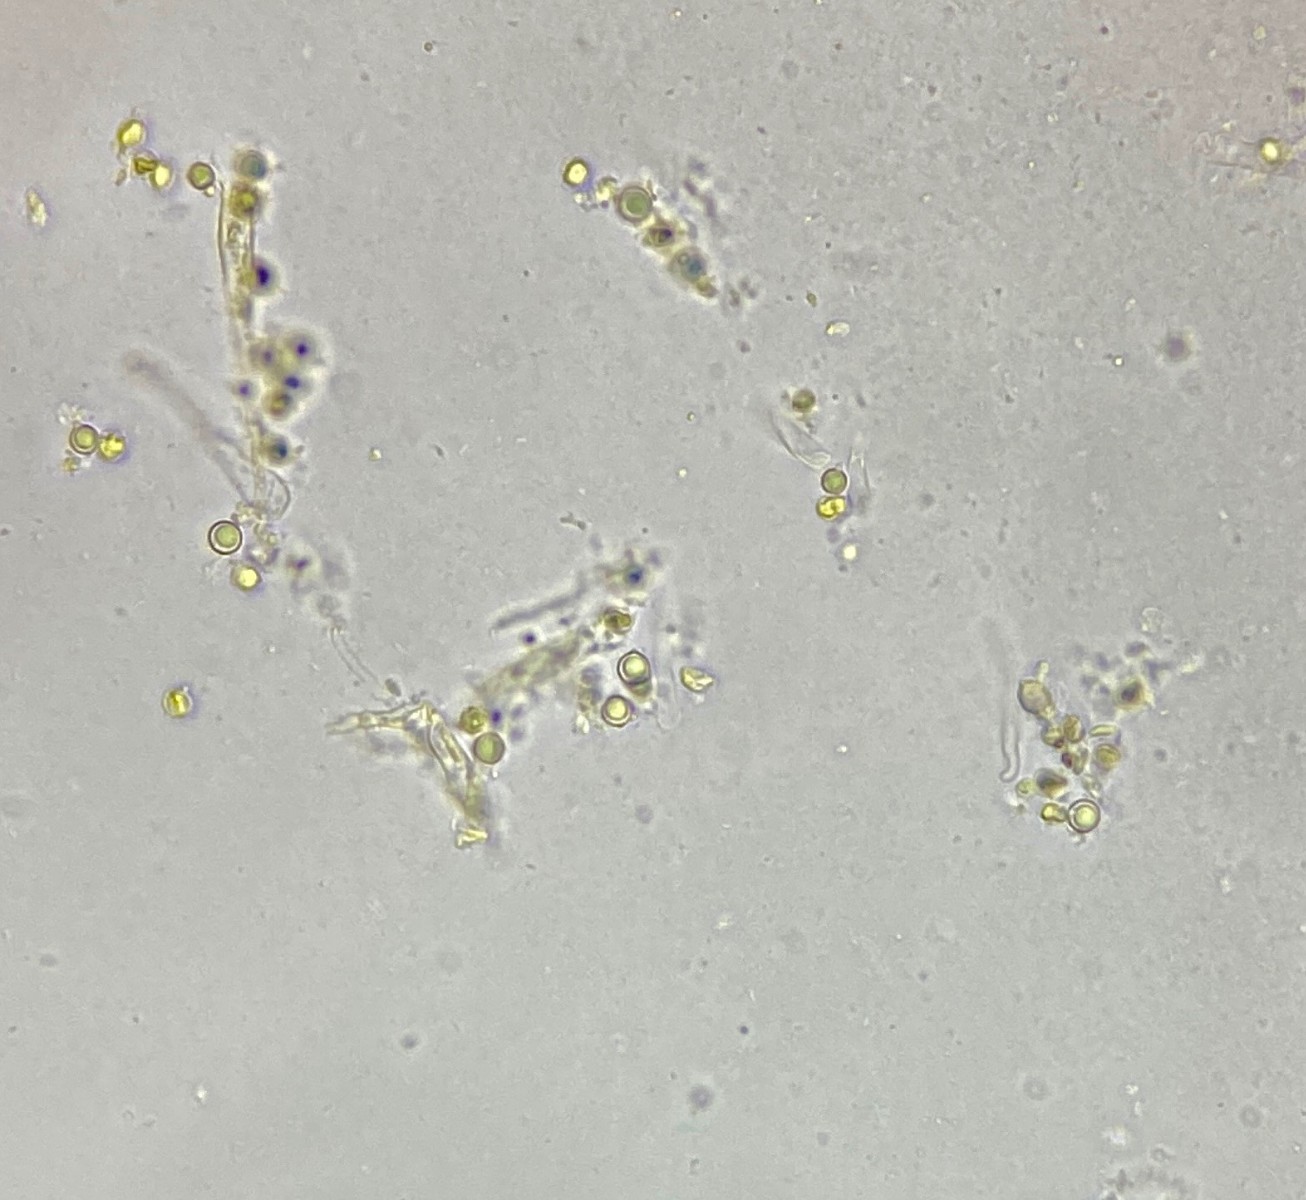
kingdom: Fungi
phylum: Basidiomycota
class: Agaricomycetes
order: Agaricales
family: Clavariaceae
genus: Clavulinopsis
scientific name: Clavulinopsis corniculata
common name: eng-køllesvamp
